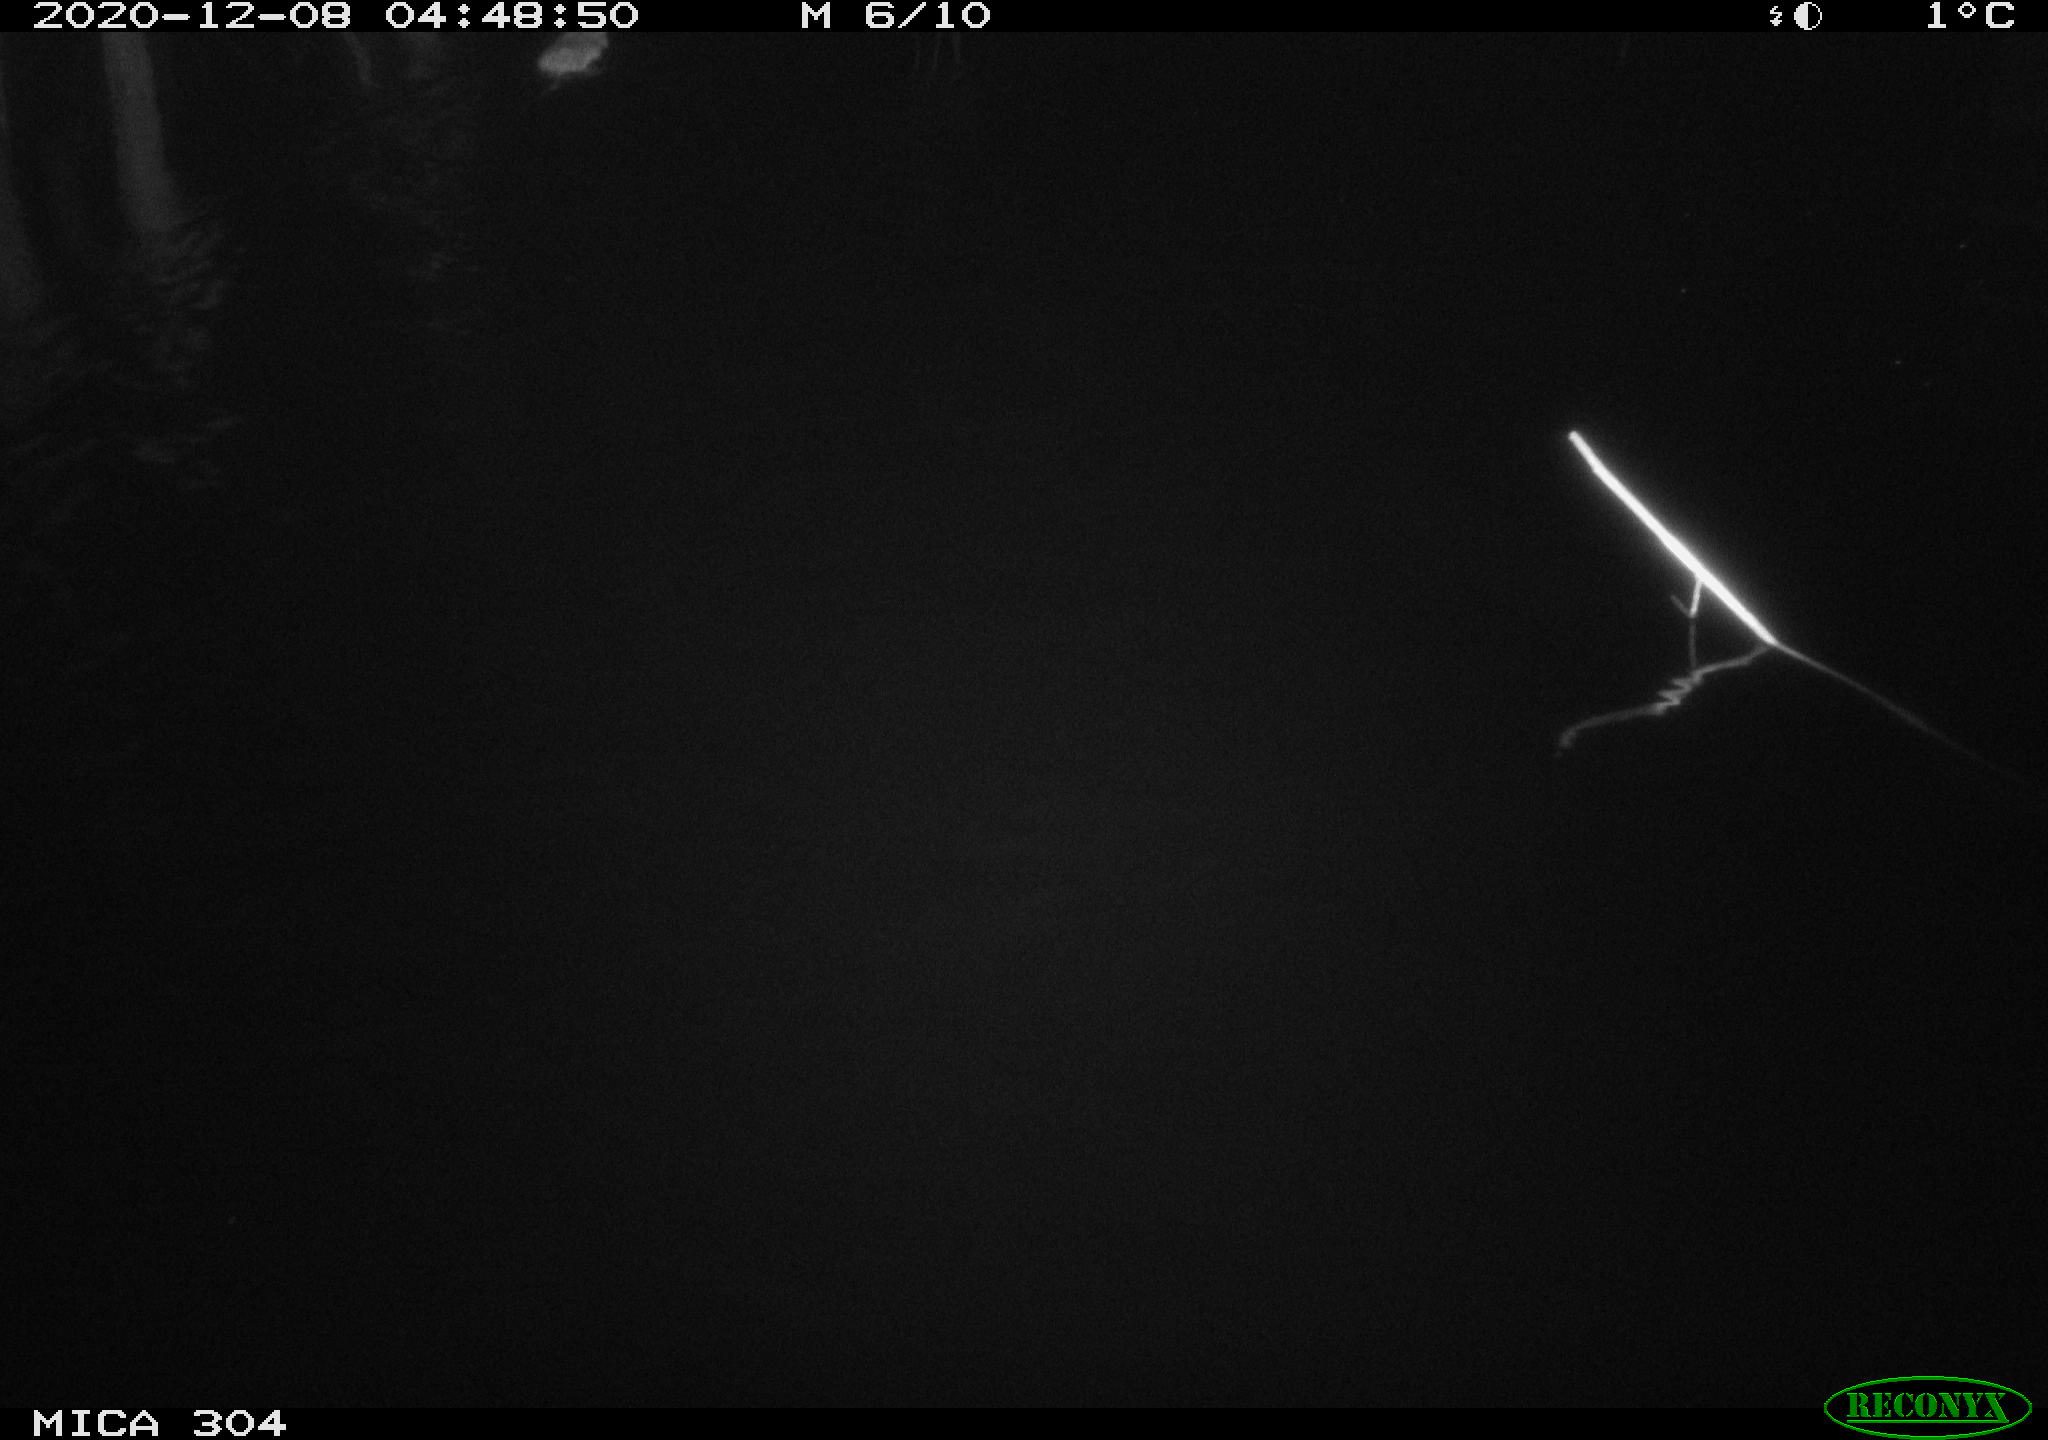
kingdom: Animalia
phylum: Chordata
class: Mammalia
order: Rodentia
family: Muridae
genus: Rattus
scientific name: Rattus norvegicus
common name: Brown rat
